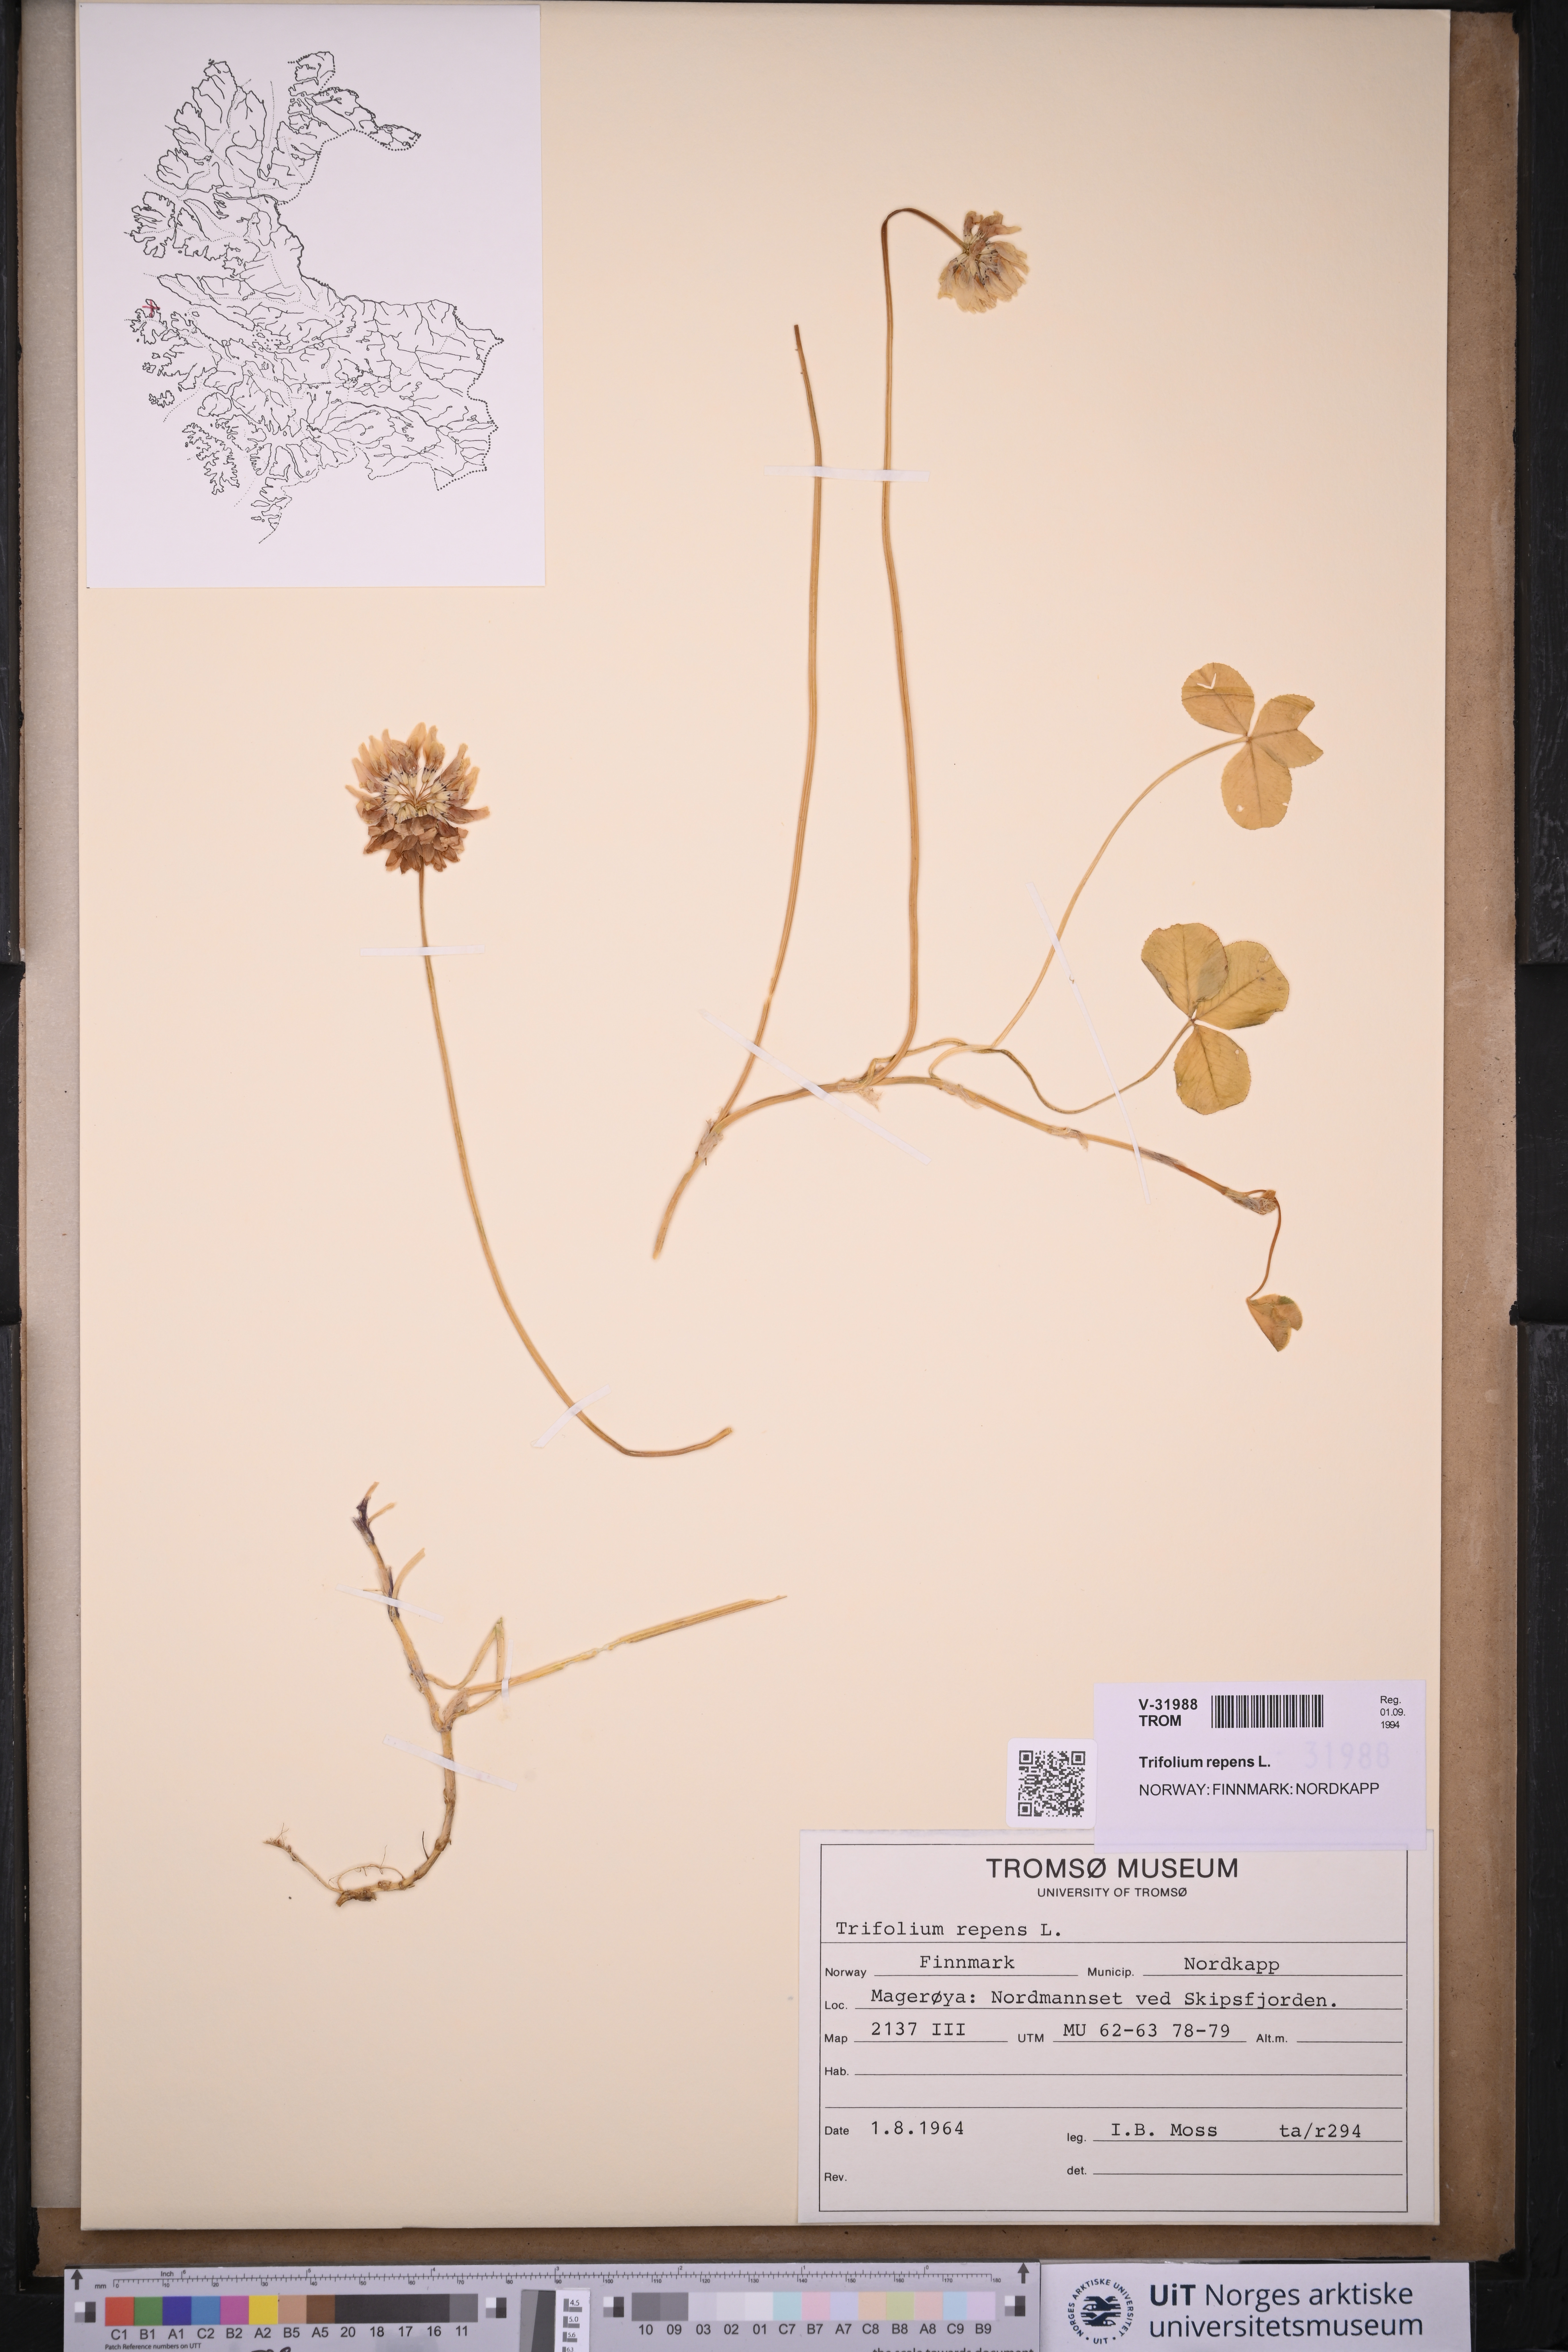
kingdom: Plantae
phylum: Tracheophyta
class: Magnoliopsida
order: Fabales
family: Fabaceae
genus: Trifolium
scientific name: Trifolium repens
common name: White clover
